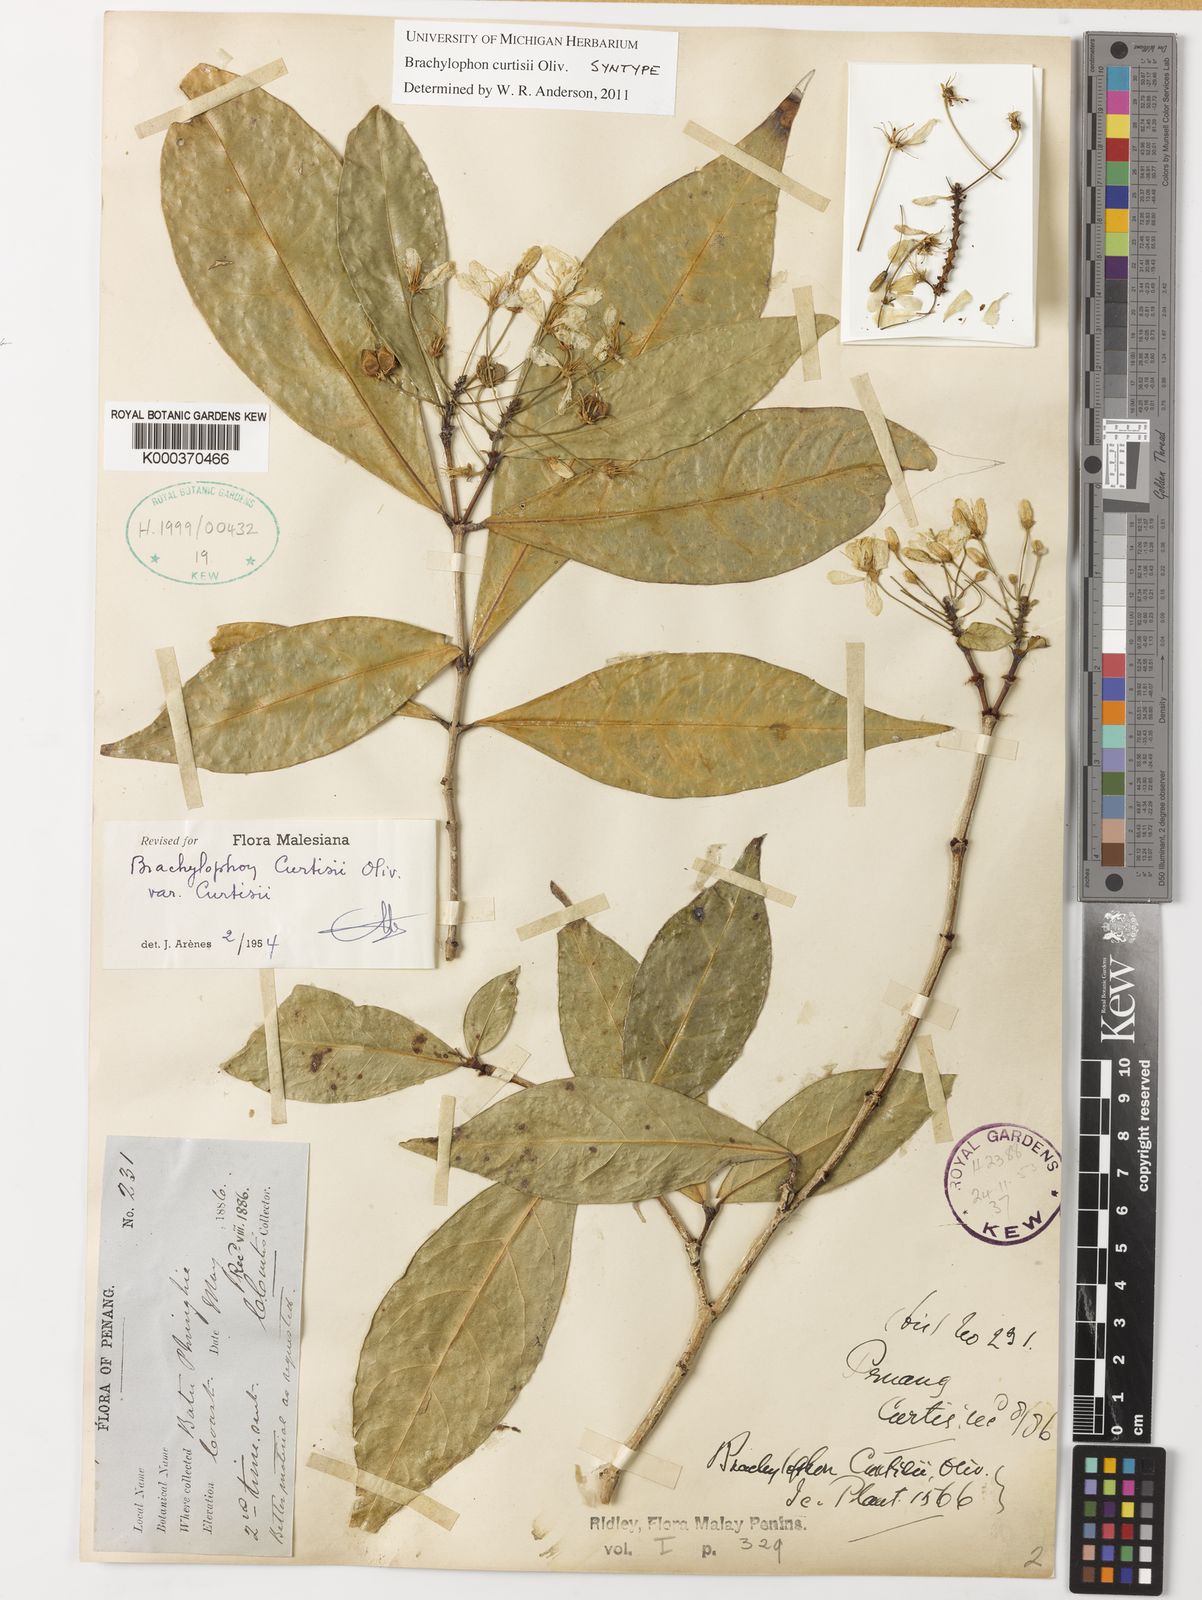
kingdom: Plantae
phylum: Tracheophyta
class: Magnoliopsida
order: Malpighiales
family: Malpighiaceae
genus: Brachylophon
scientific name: Brachylophon curtisii
